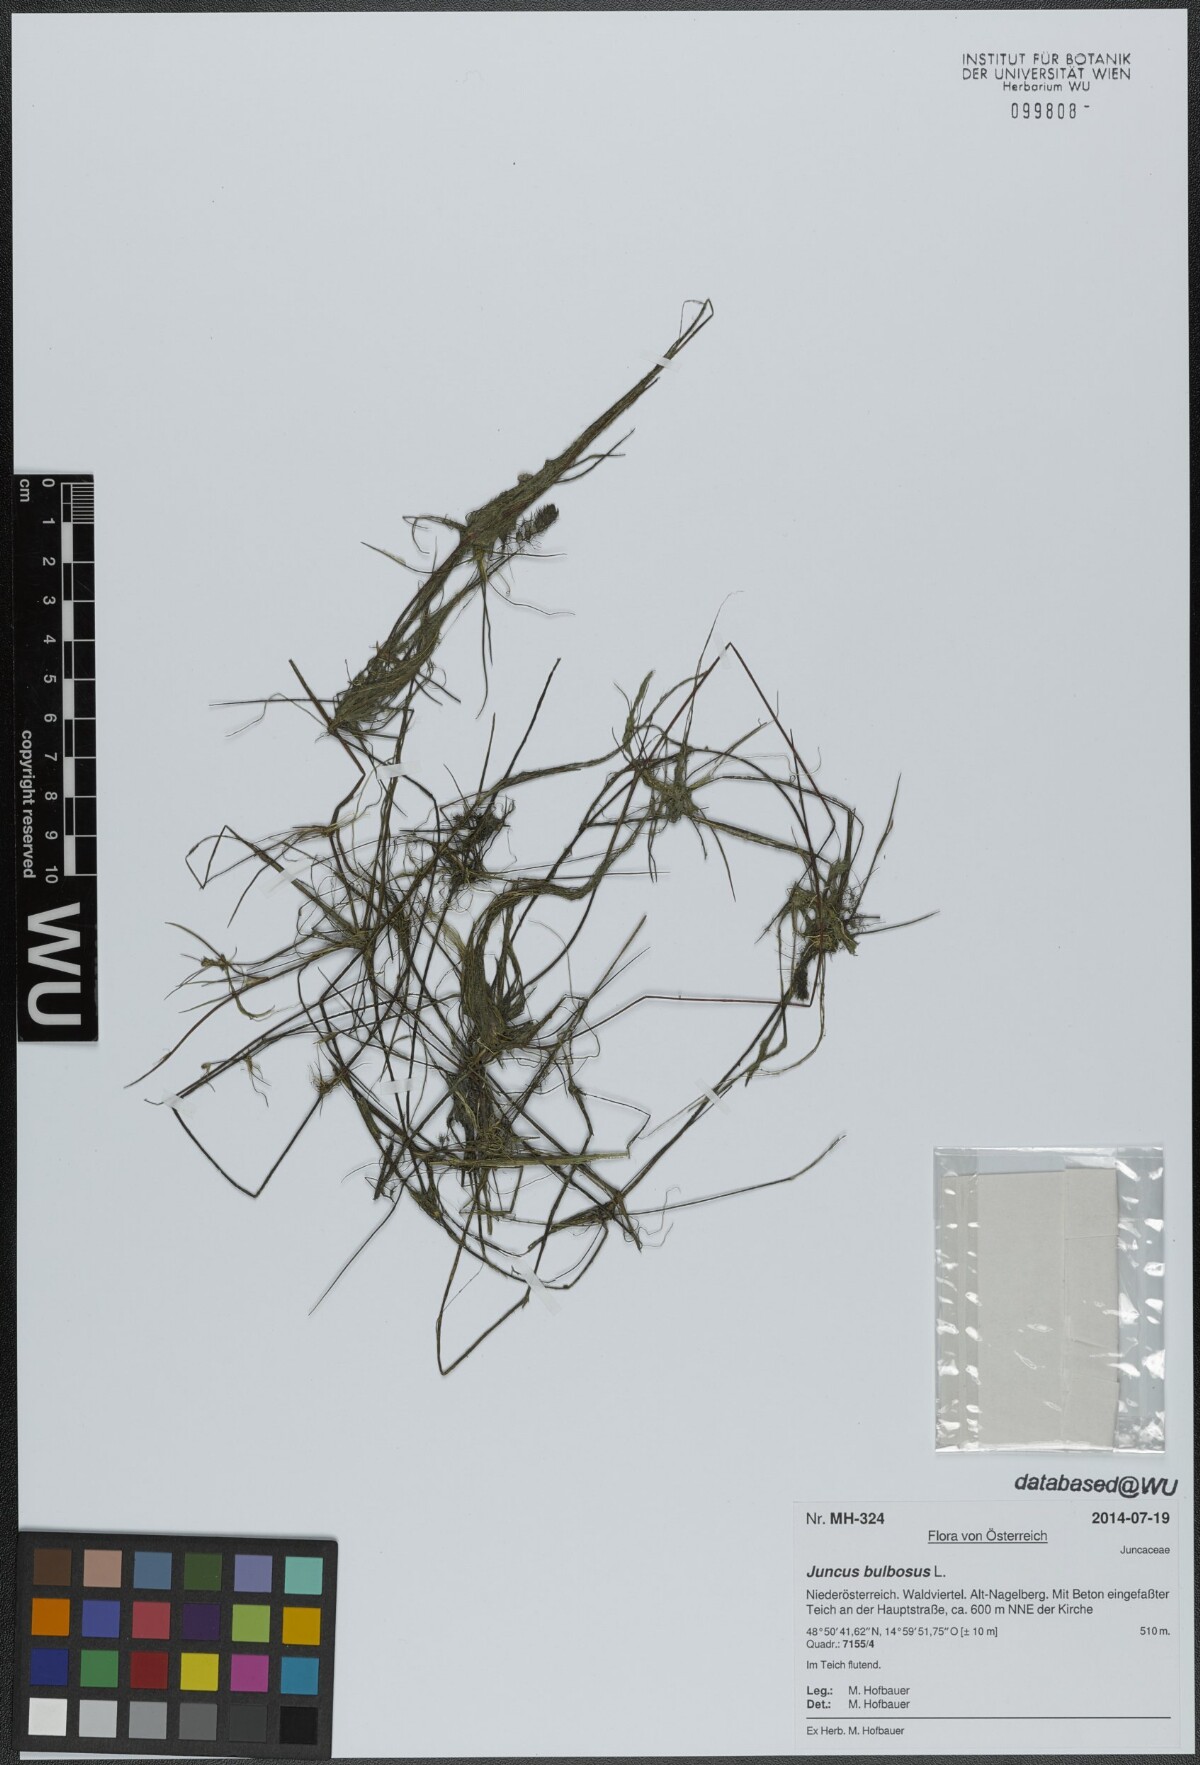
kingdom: Plantae
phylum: Tracheophyta
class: Liliopsida
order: Poales
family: Juncaceae
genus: Juncus
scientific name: Juncus bulbosus
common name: Bulbous rush
